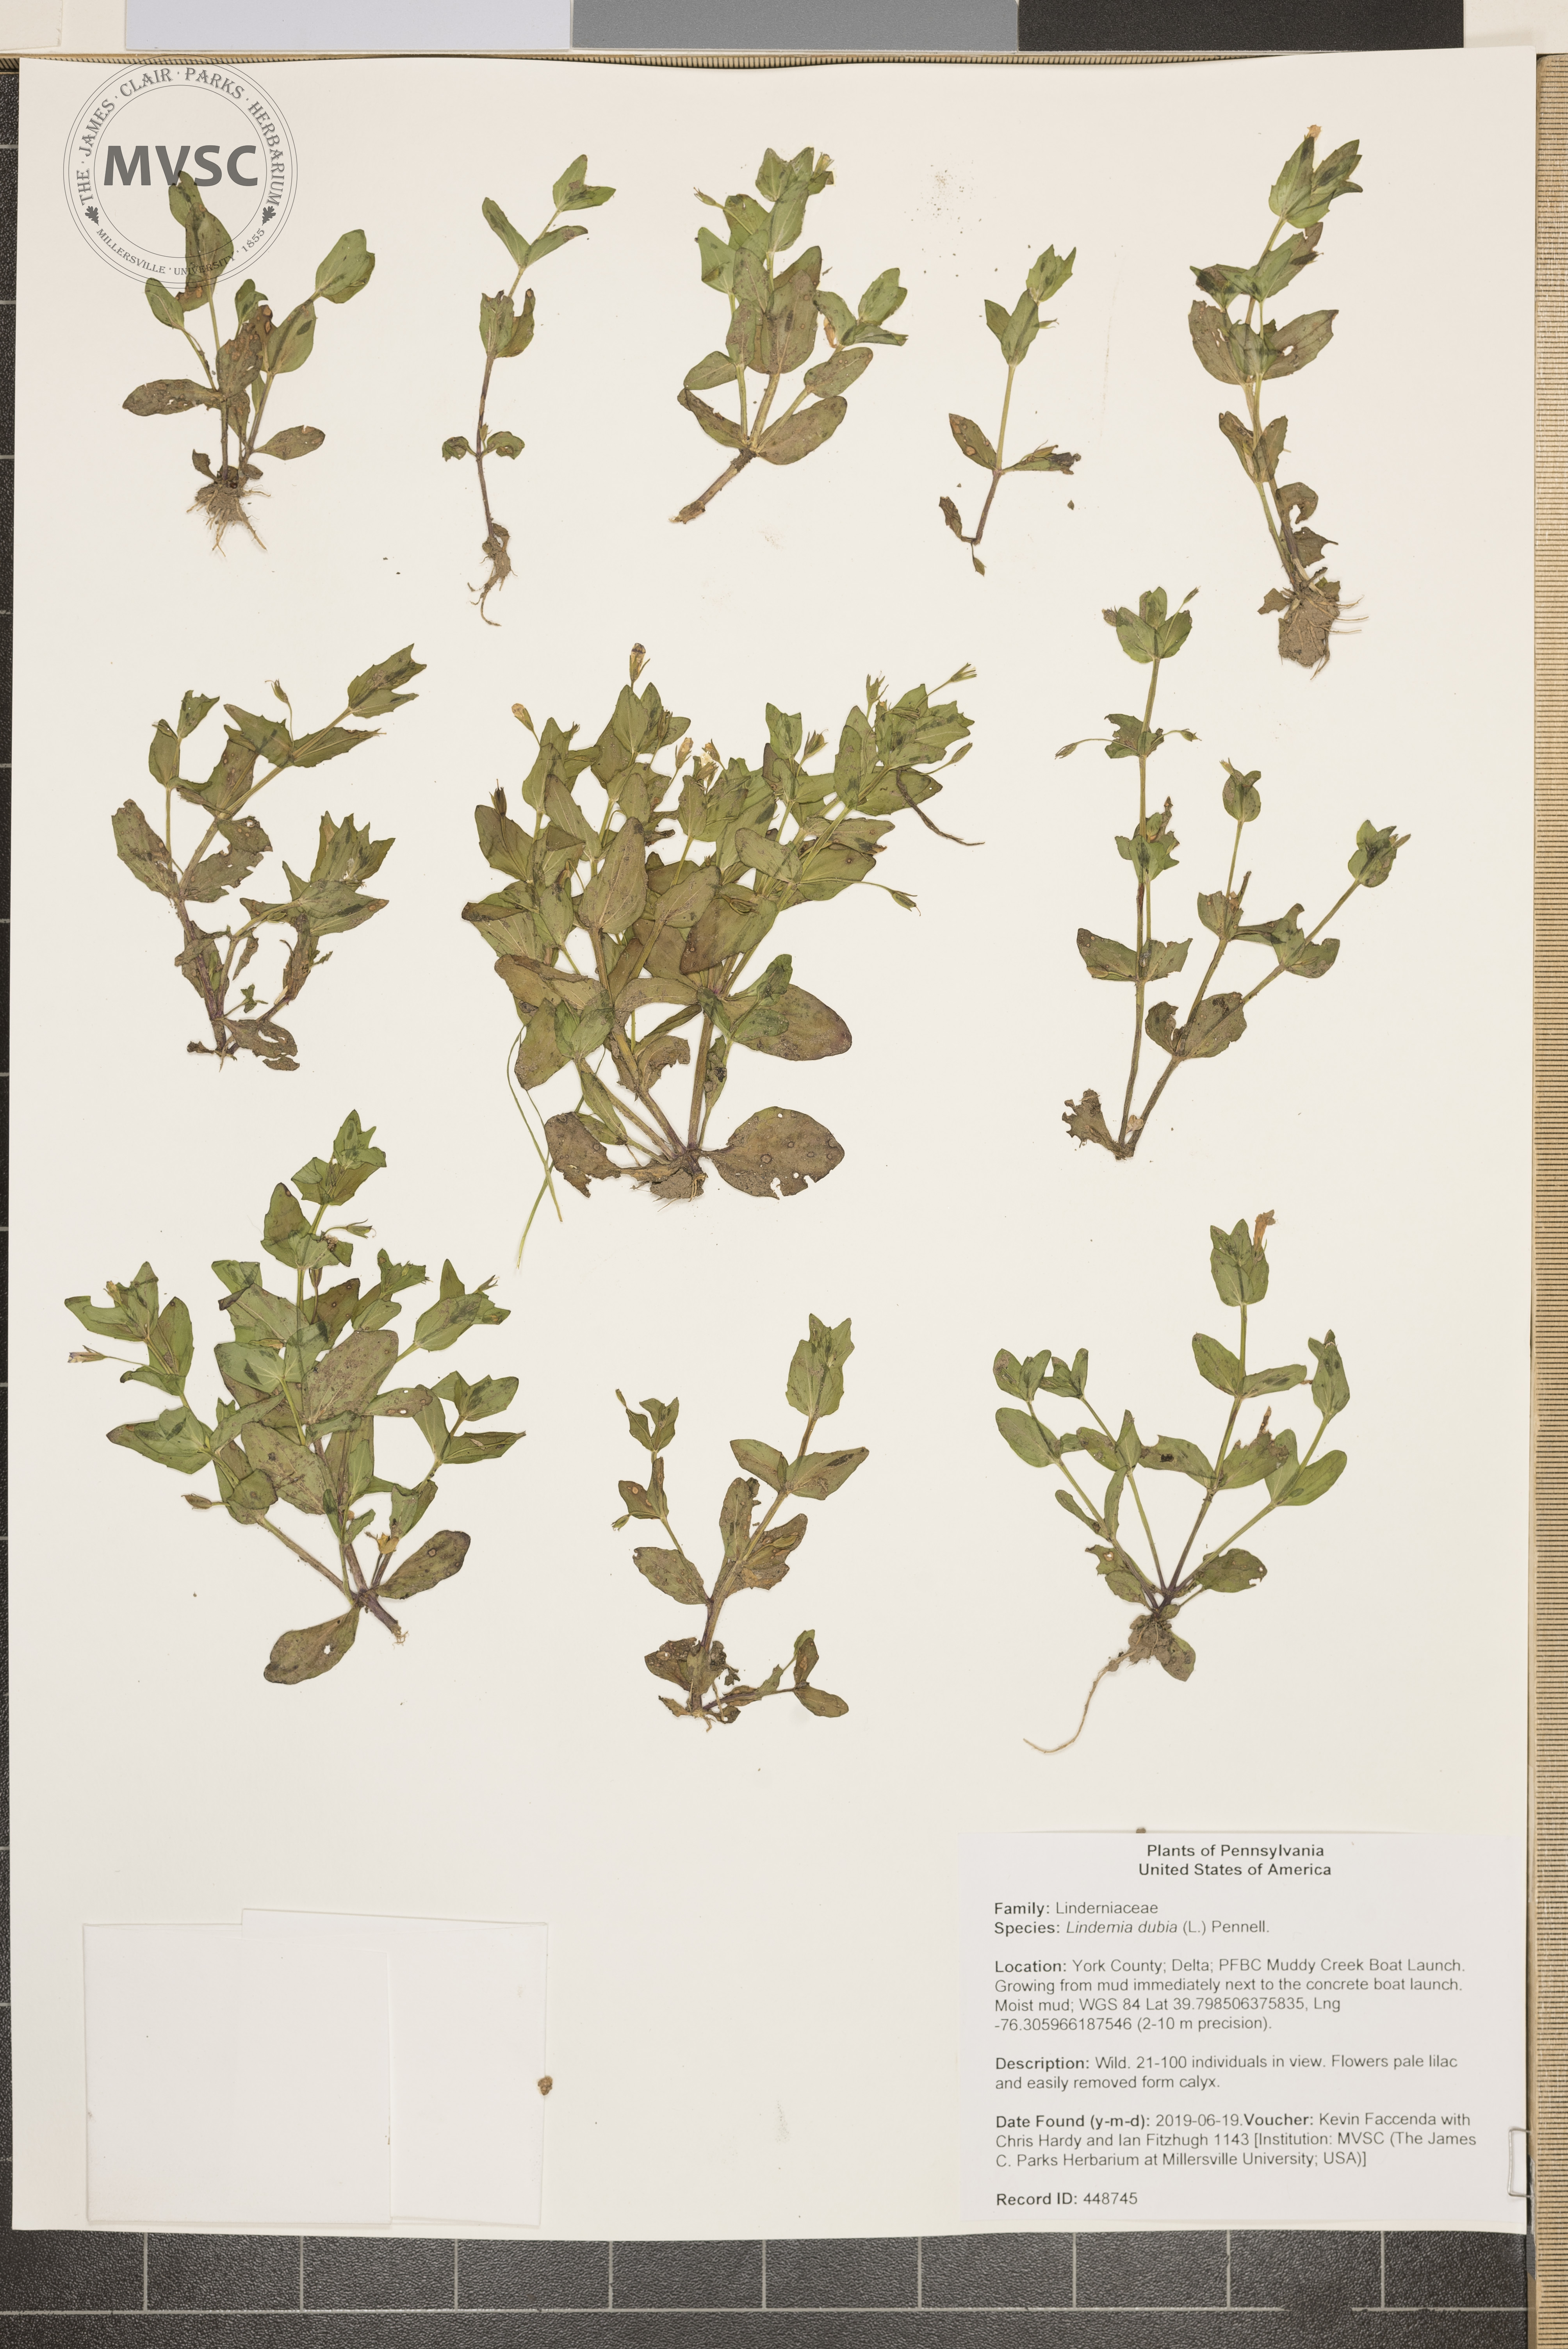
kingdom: Plantae
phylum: Tracheophyta
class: Magnoliopsida
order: Lamiales
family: Linderniaceae
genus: Lindernia
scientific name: Lindernia dubia
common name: Annual false pimpernel
